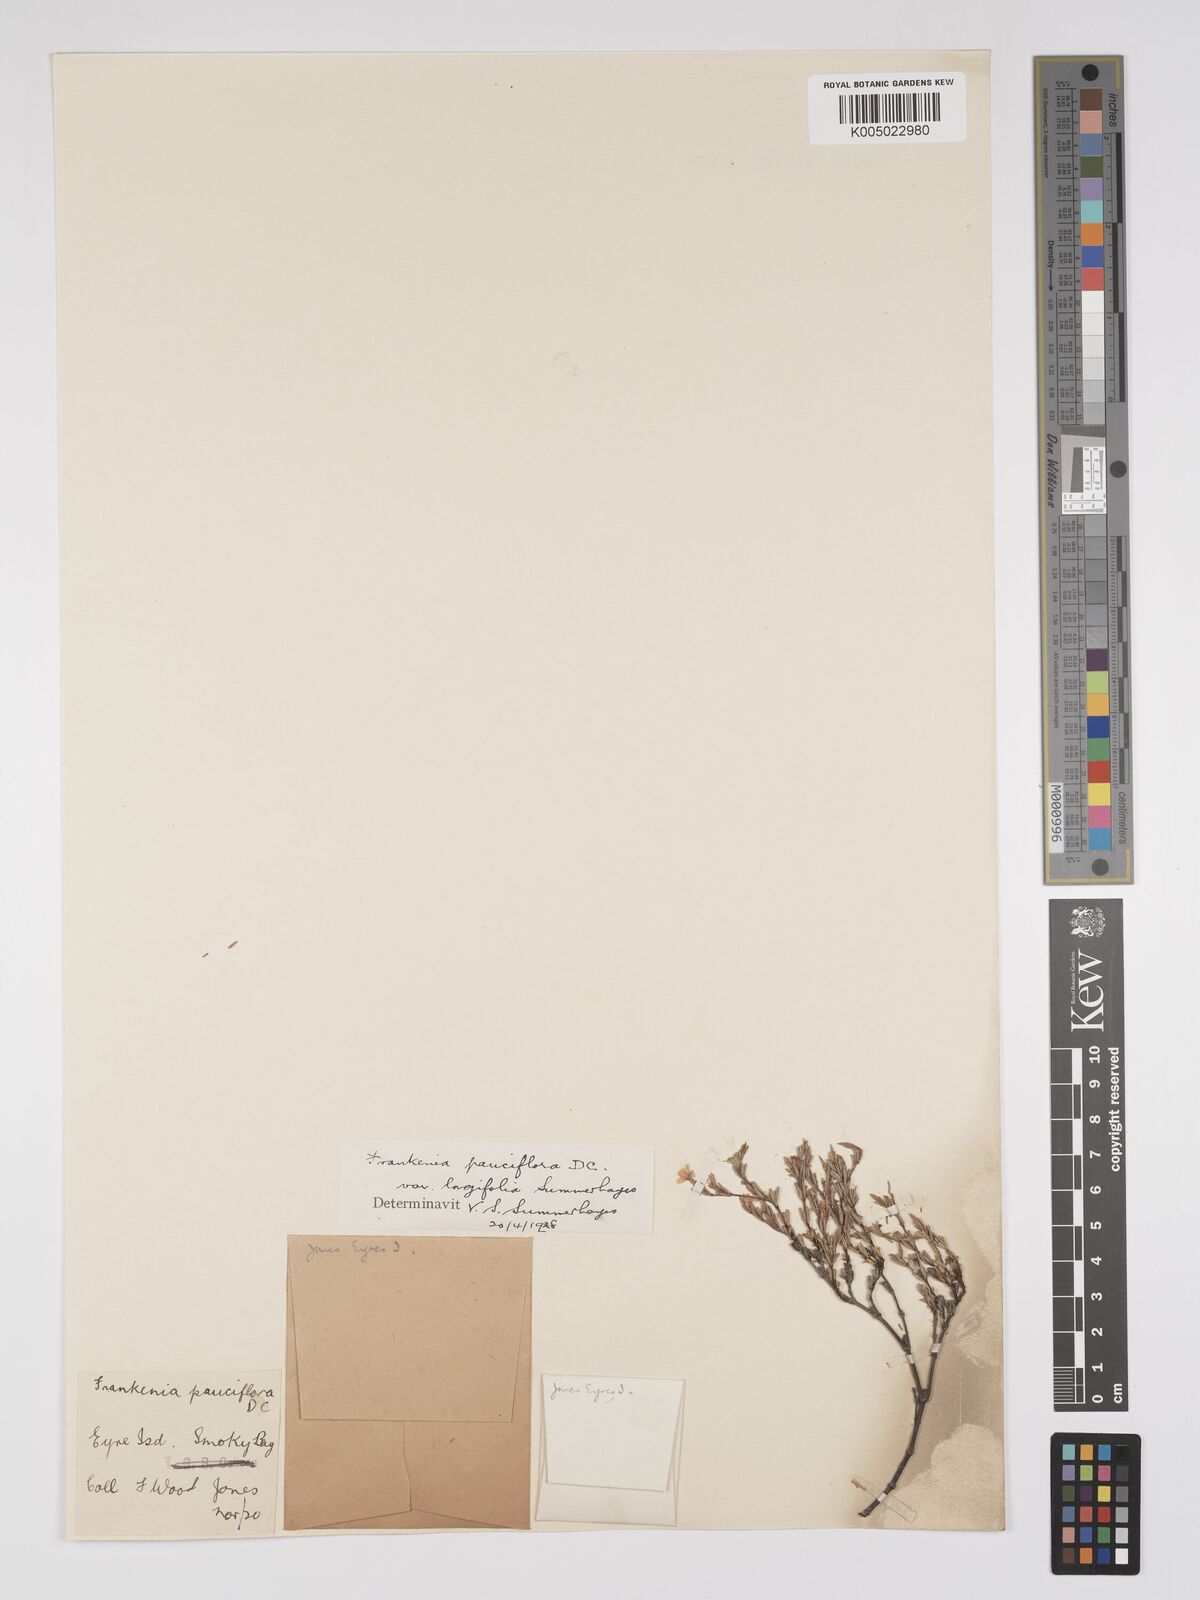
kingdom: Plantae
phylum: Tracheophyta
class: Magnoliopsida
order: Caryophyllales
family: Frankeniaceae
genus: Frankenia
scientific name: Frankenia pauciflora
